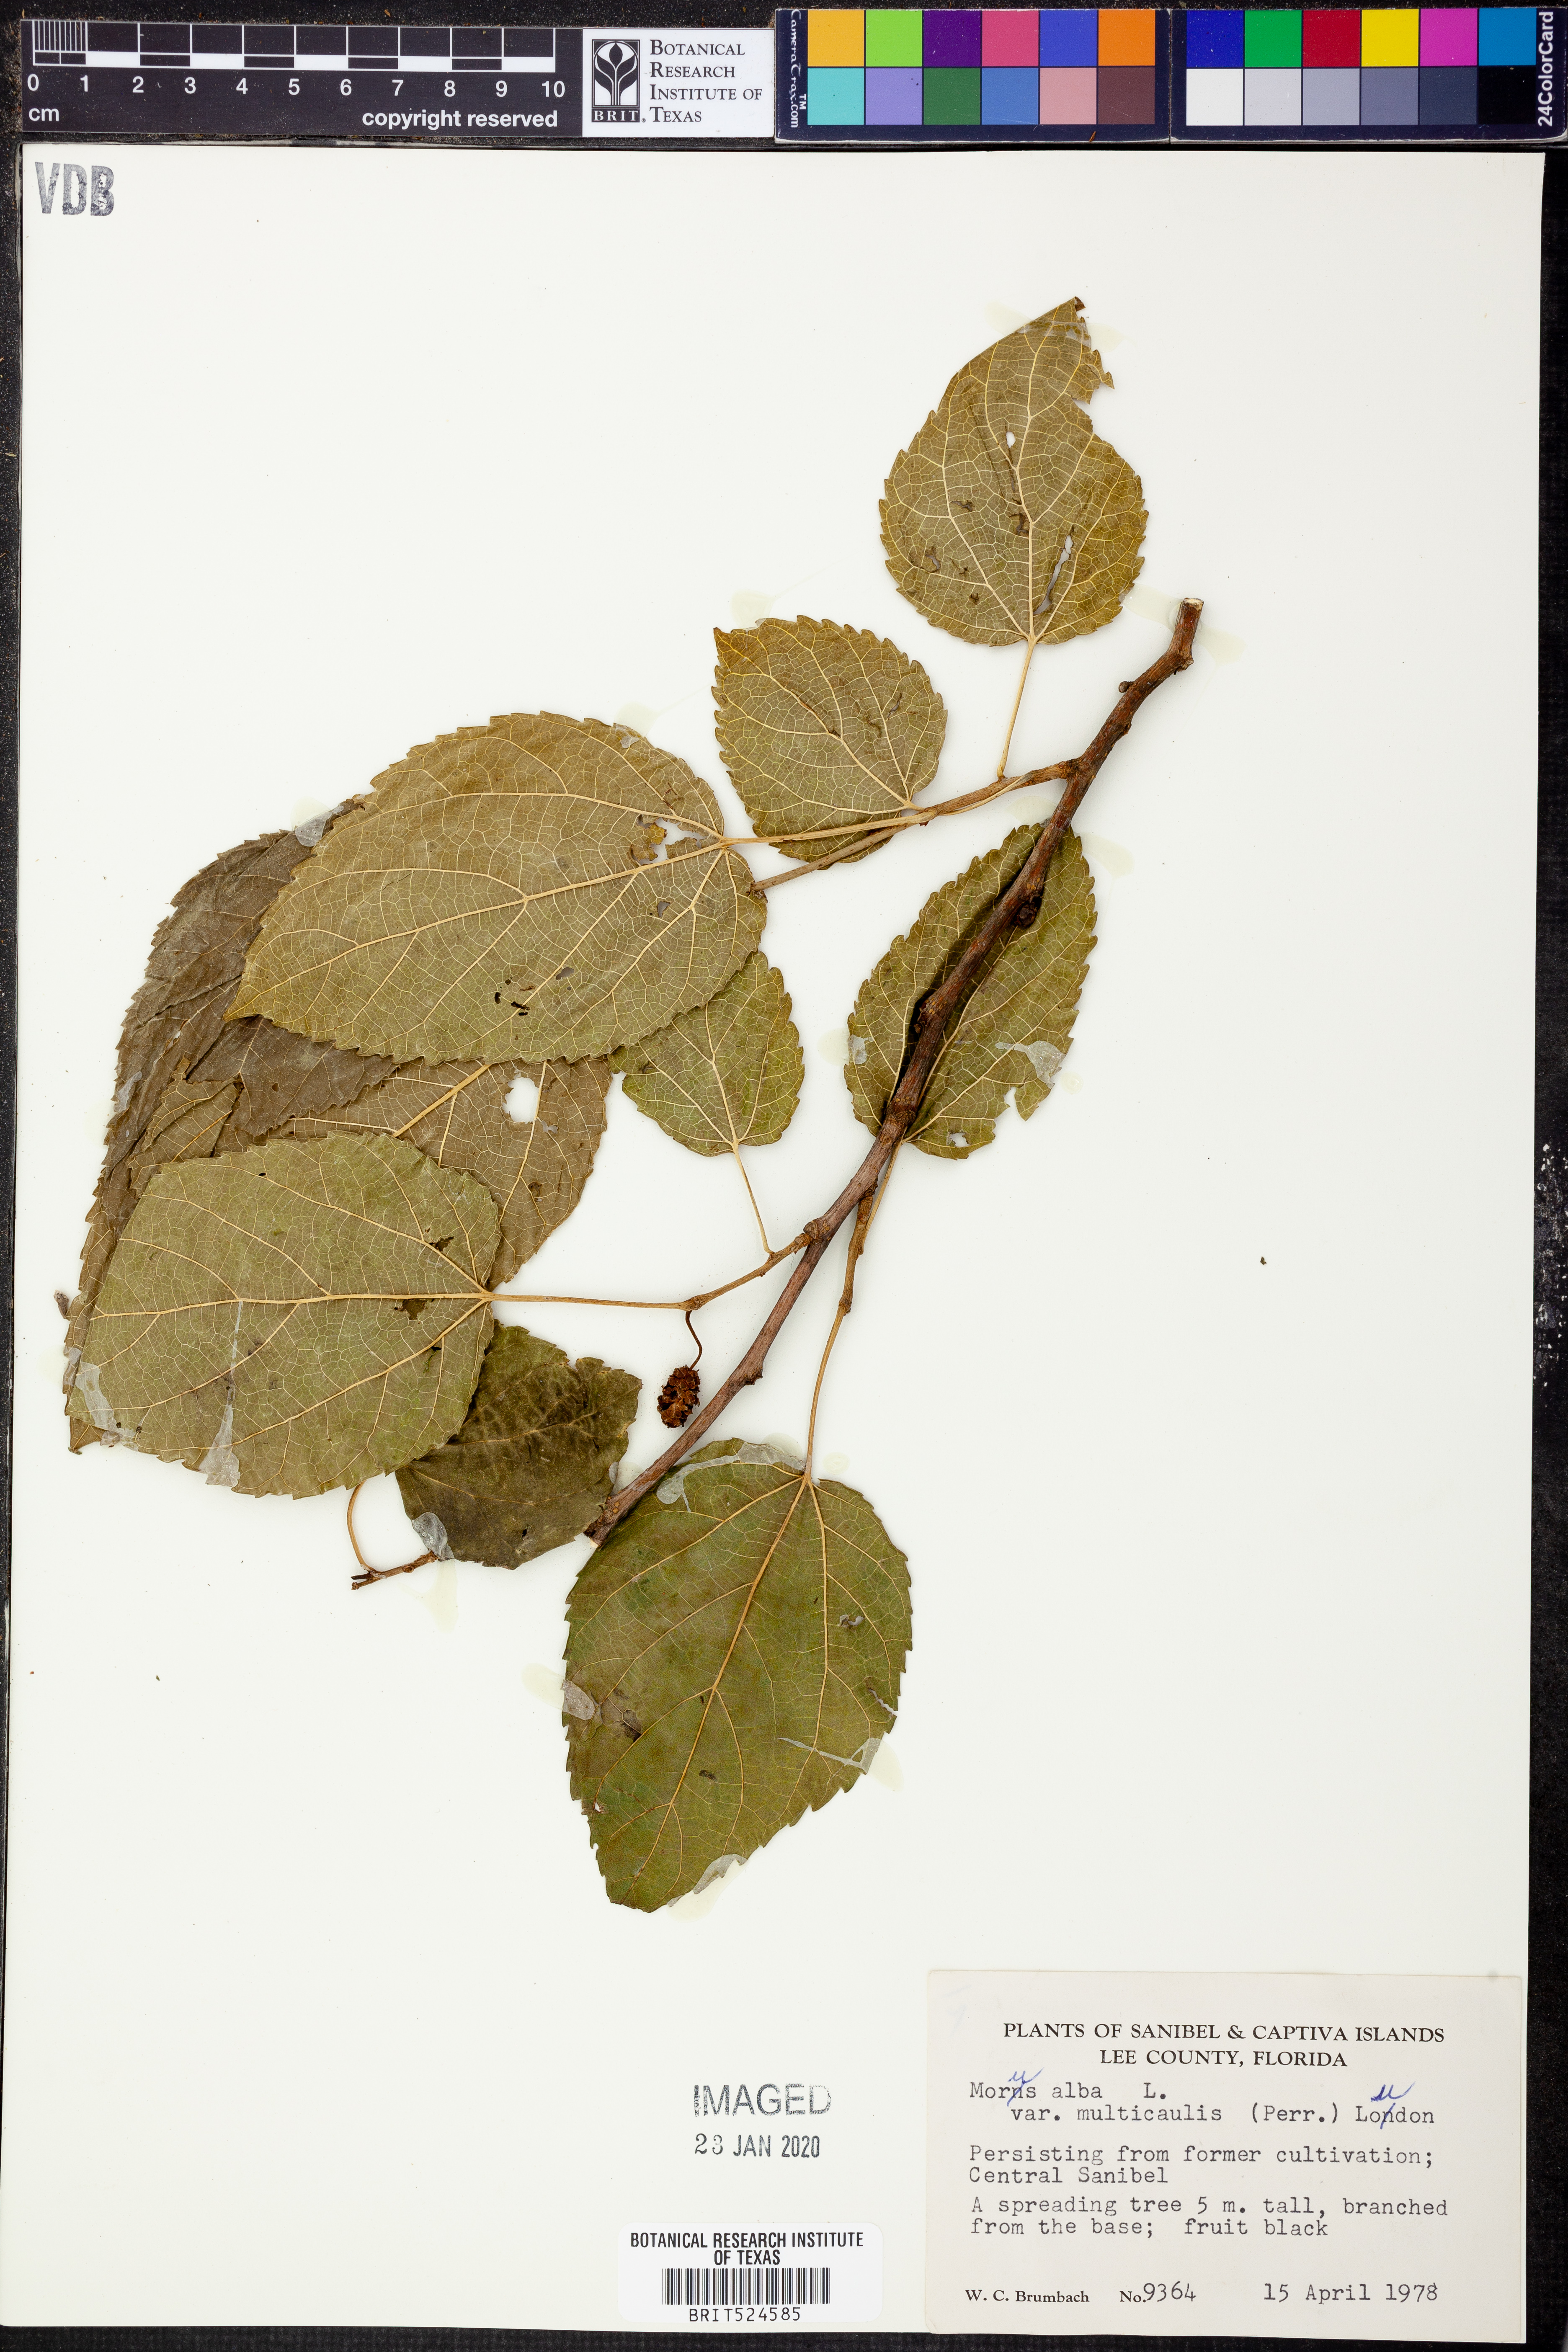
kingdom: Plantae
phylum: Tracheophyta
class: Magnoliopsida
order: Rosales
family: Moraceae
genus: Morus
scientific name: Morus alba
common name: White mulberry
